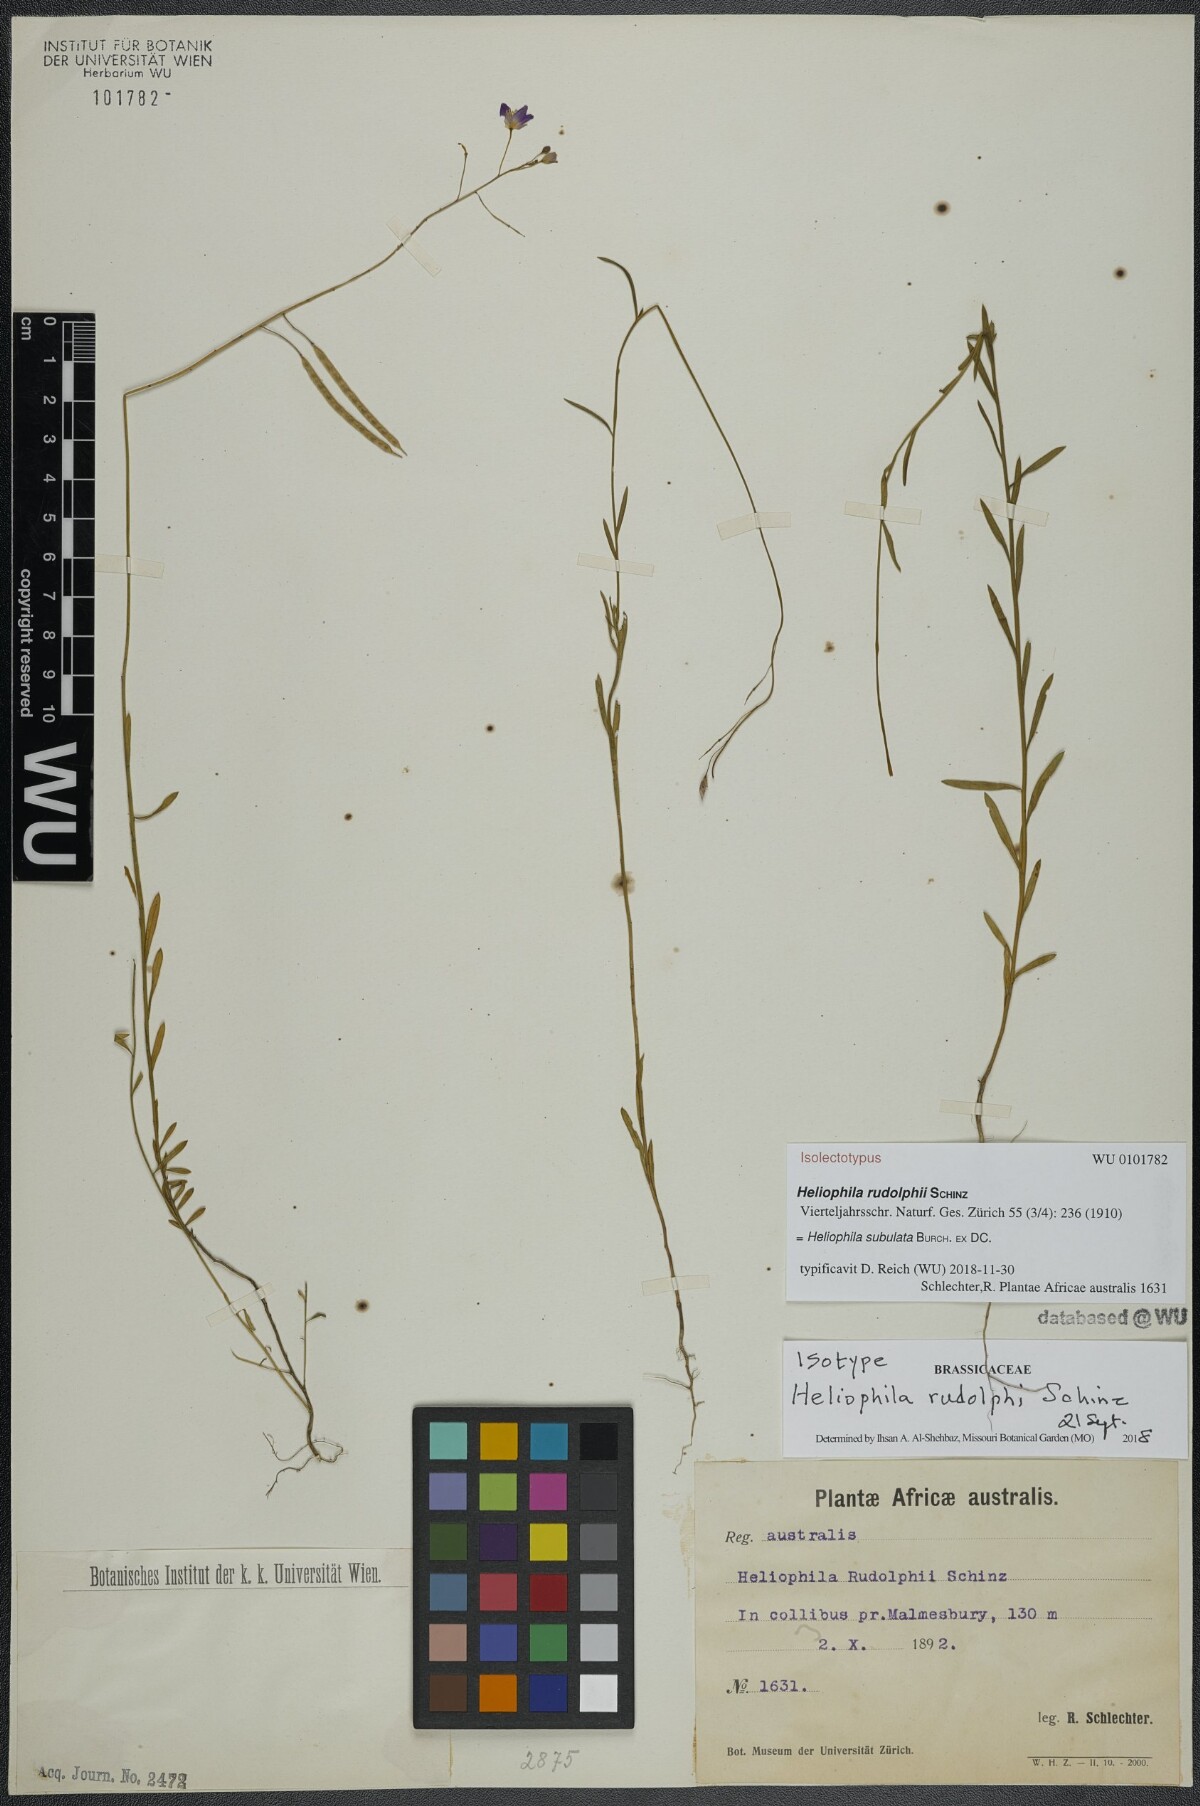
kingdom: Plantae
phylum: Tracheophyta
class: Magnoliopsida
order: Brassicales
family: Brassicaceae
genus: Heliophila
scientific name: Heliophila subulata
